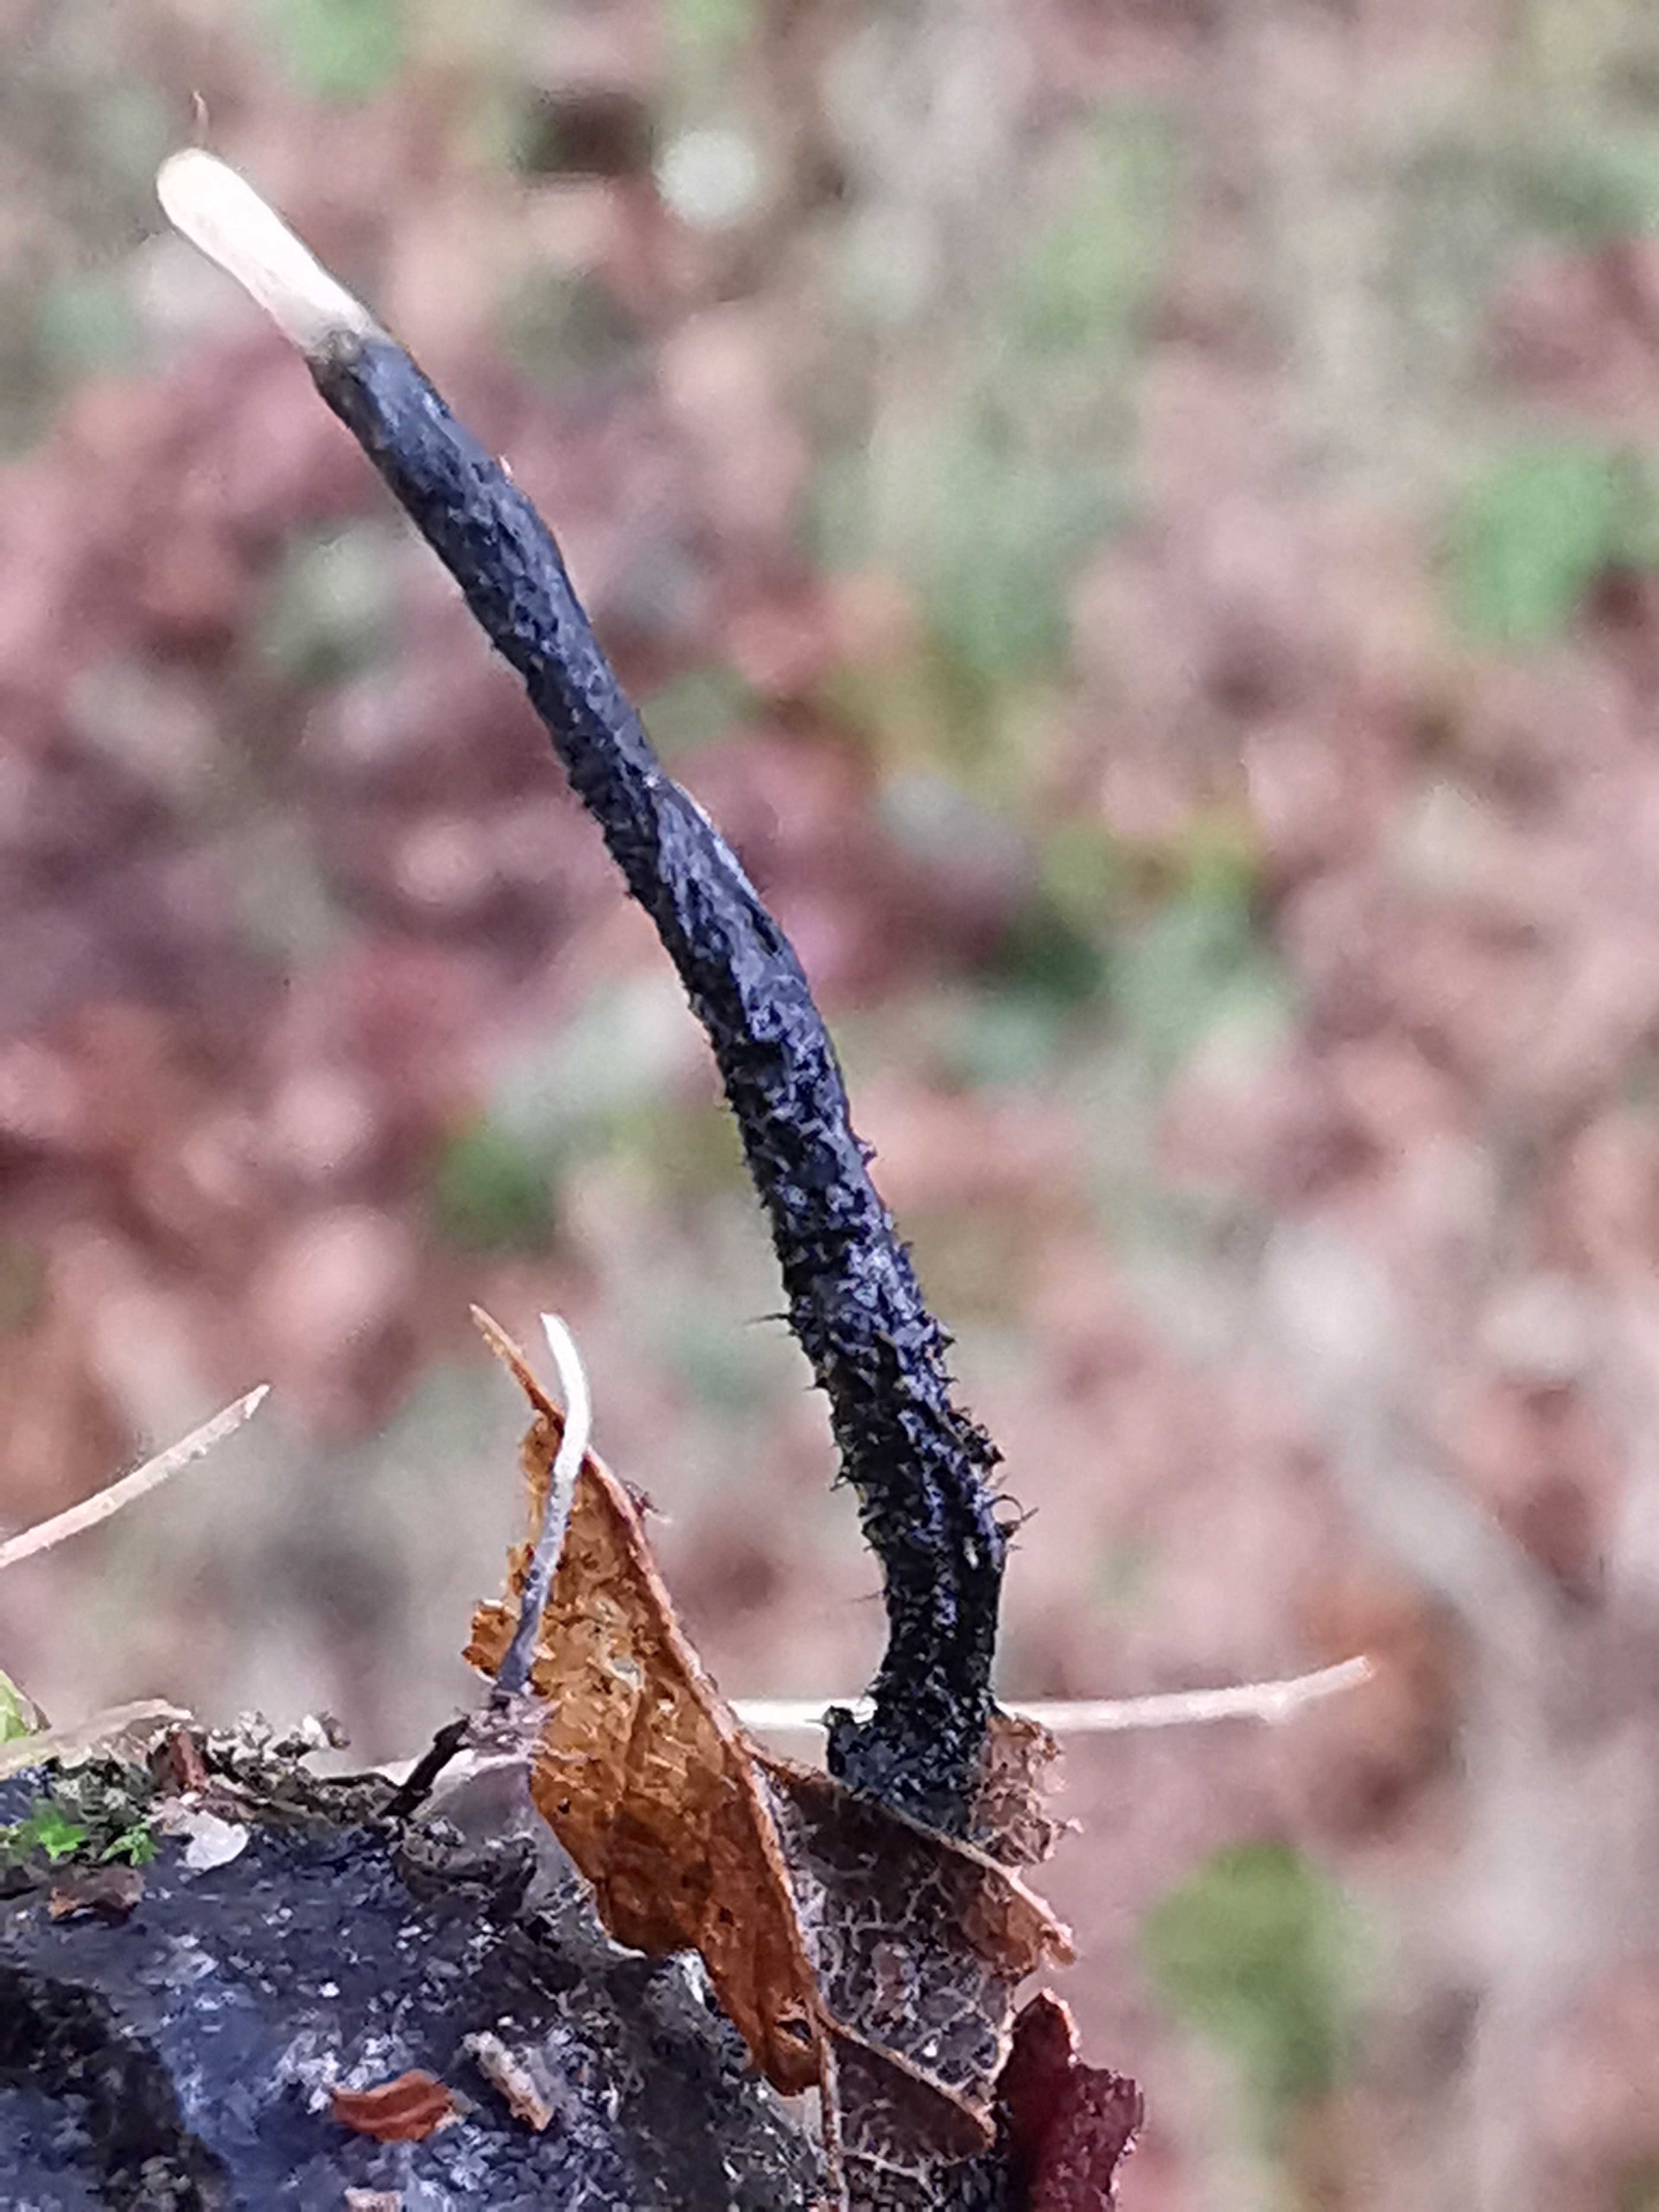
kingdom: Fungi
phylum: Ascomycota
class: Sordariomycetes
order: Xylariales
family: Xylariaceae
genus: Xylaria
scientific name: Xylaria carpophila
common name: bogskål-stødsvamp
